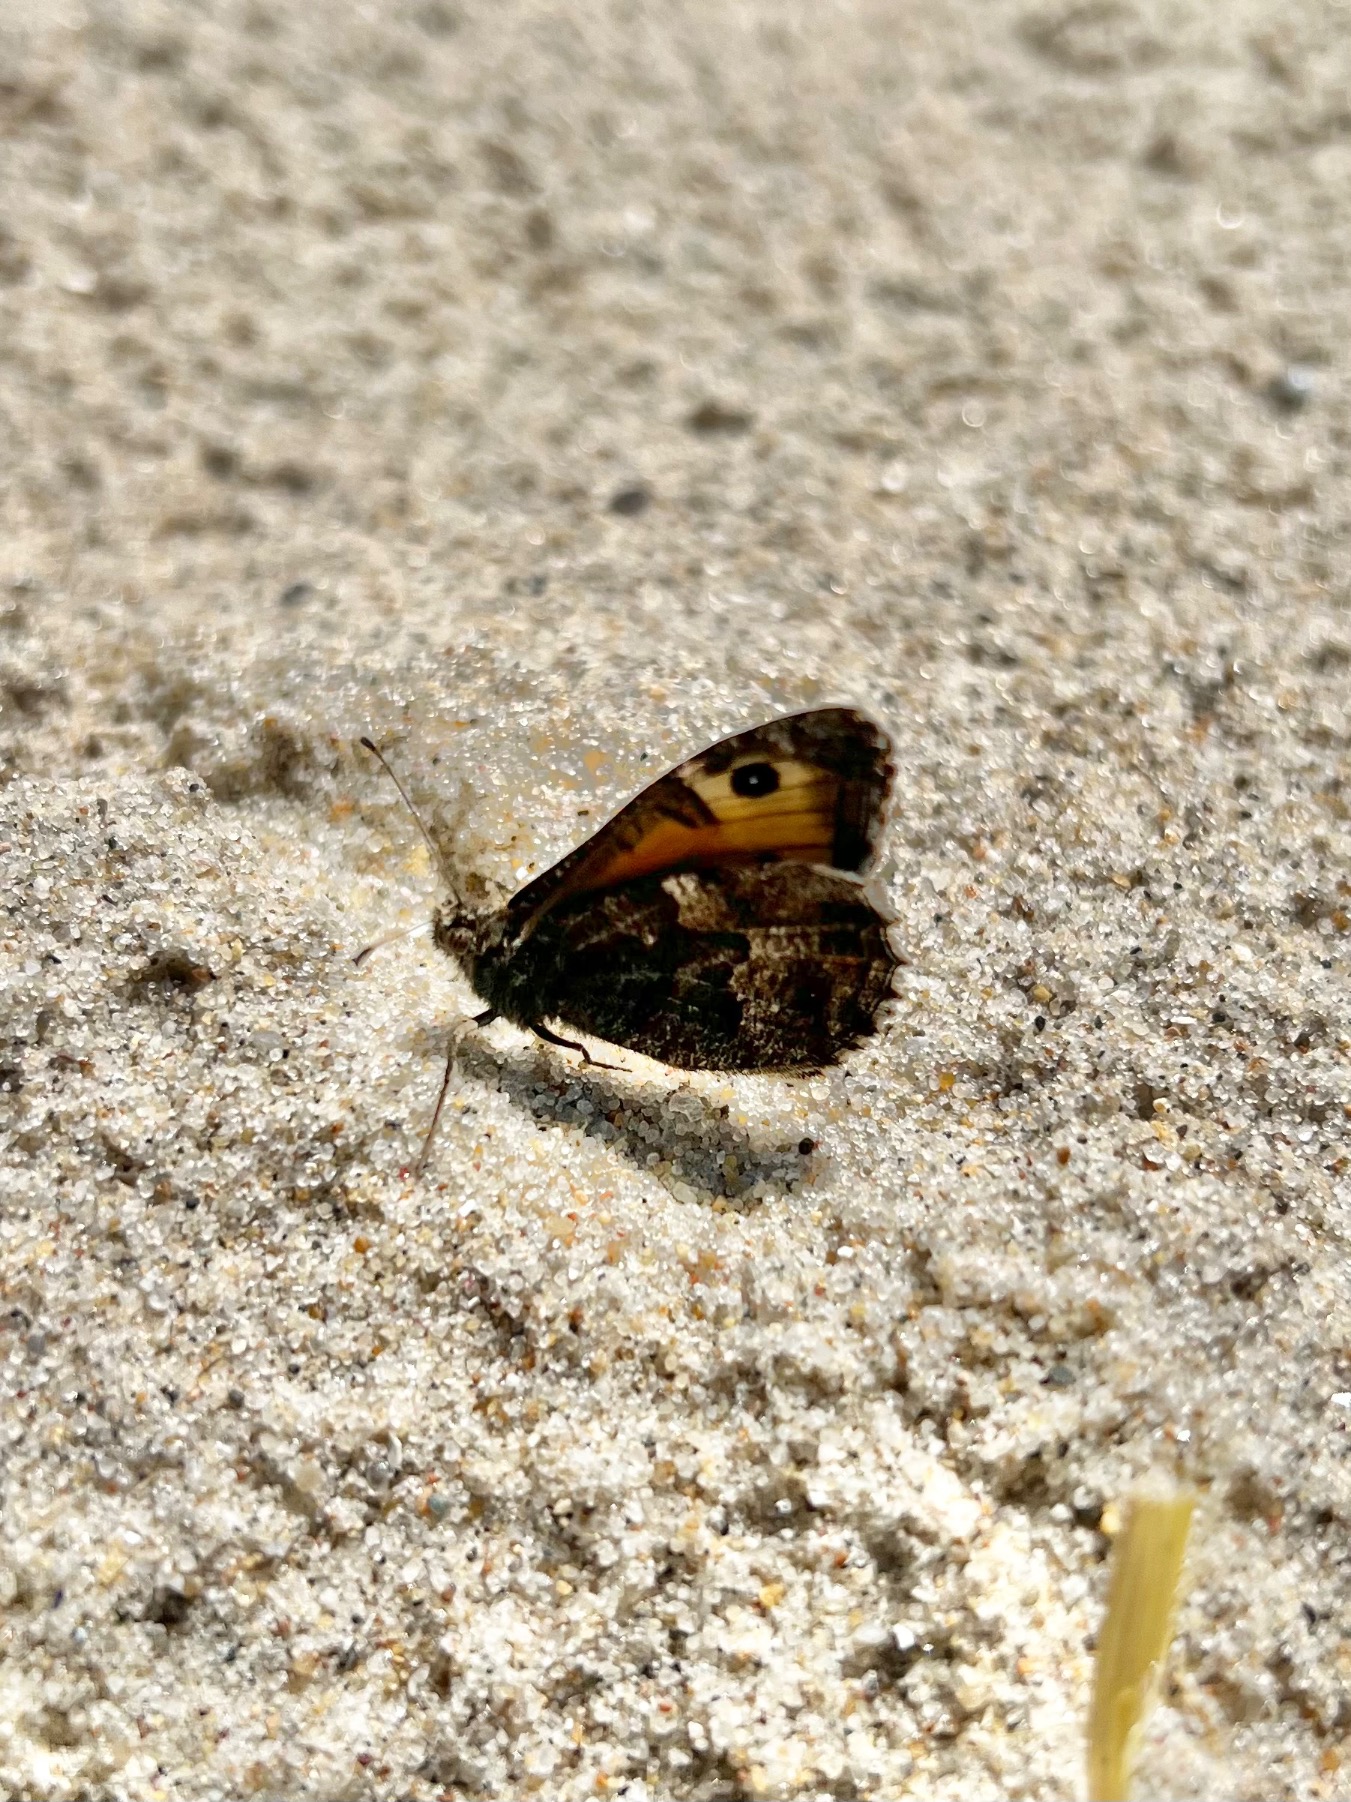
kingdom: Animalia
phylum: Arthropoda
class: Insecta
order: Lepidoptera
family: Nymphalidae
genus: Hipparchia
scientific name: Hipparchia semele
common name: Sandrandøje
